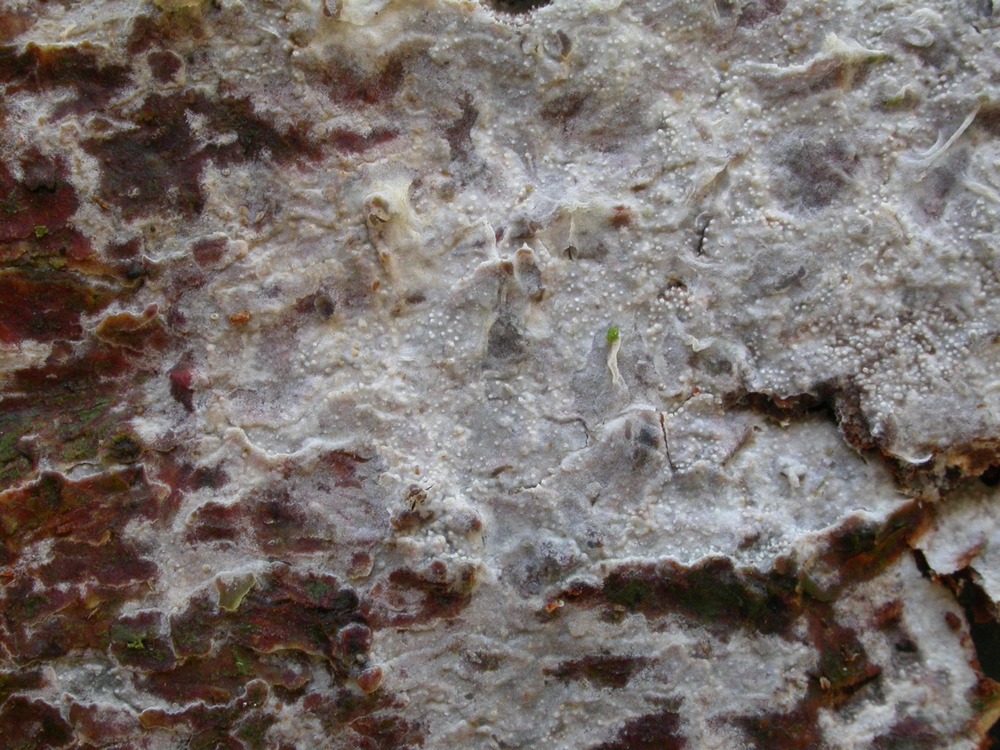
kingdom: Fungi
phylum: Basidiomycota
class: Agaricomycetes
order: Hymenochaetales
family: Rickenellaceae
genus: Resinicium
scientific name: Resinicium bicolor
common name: almindelig vokstand
